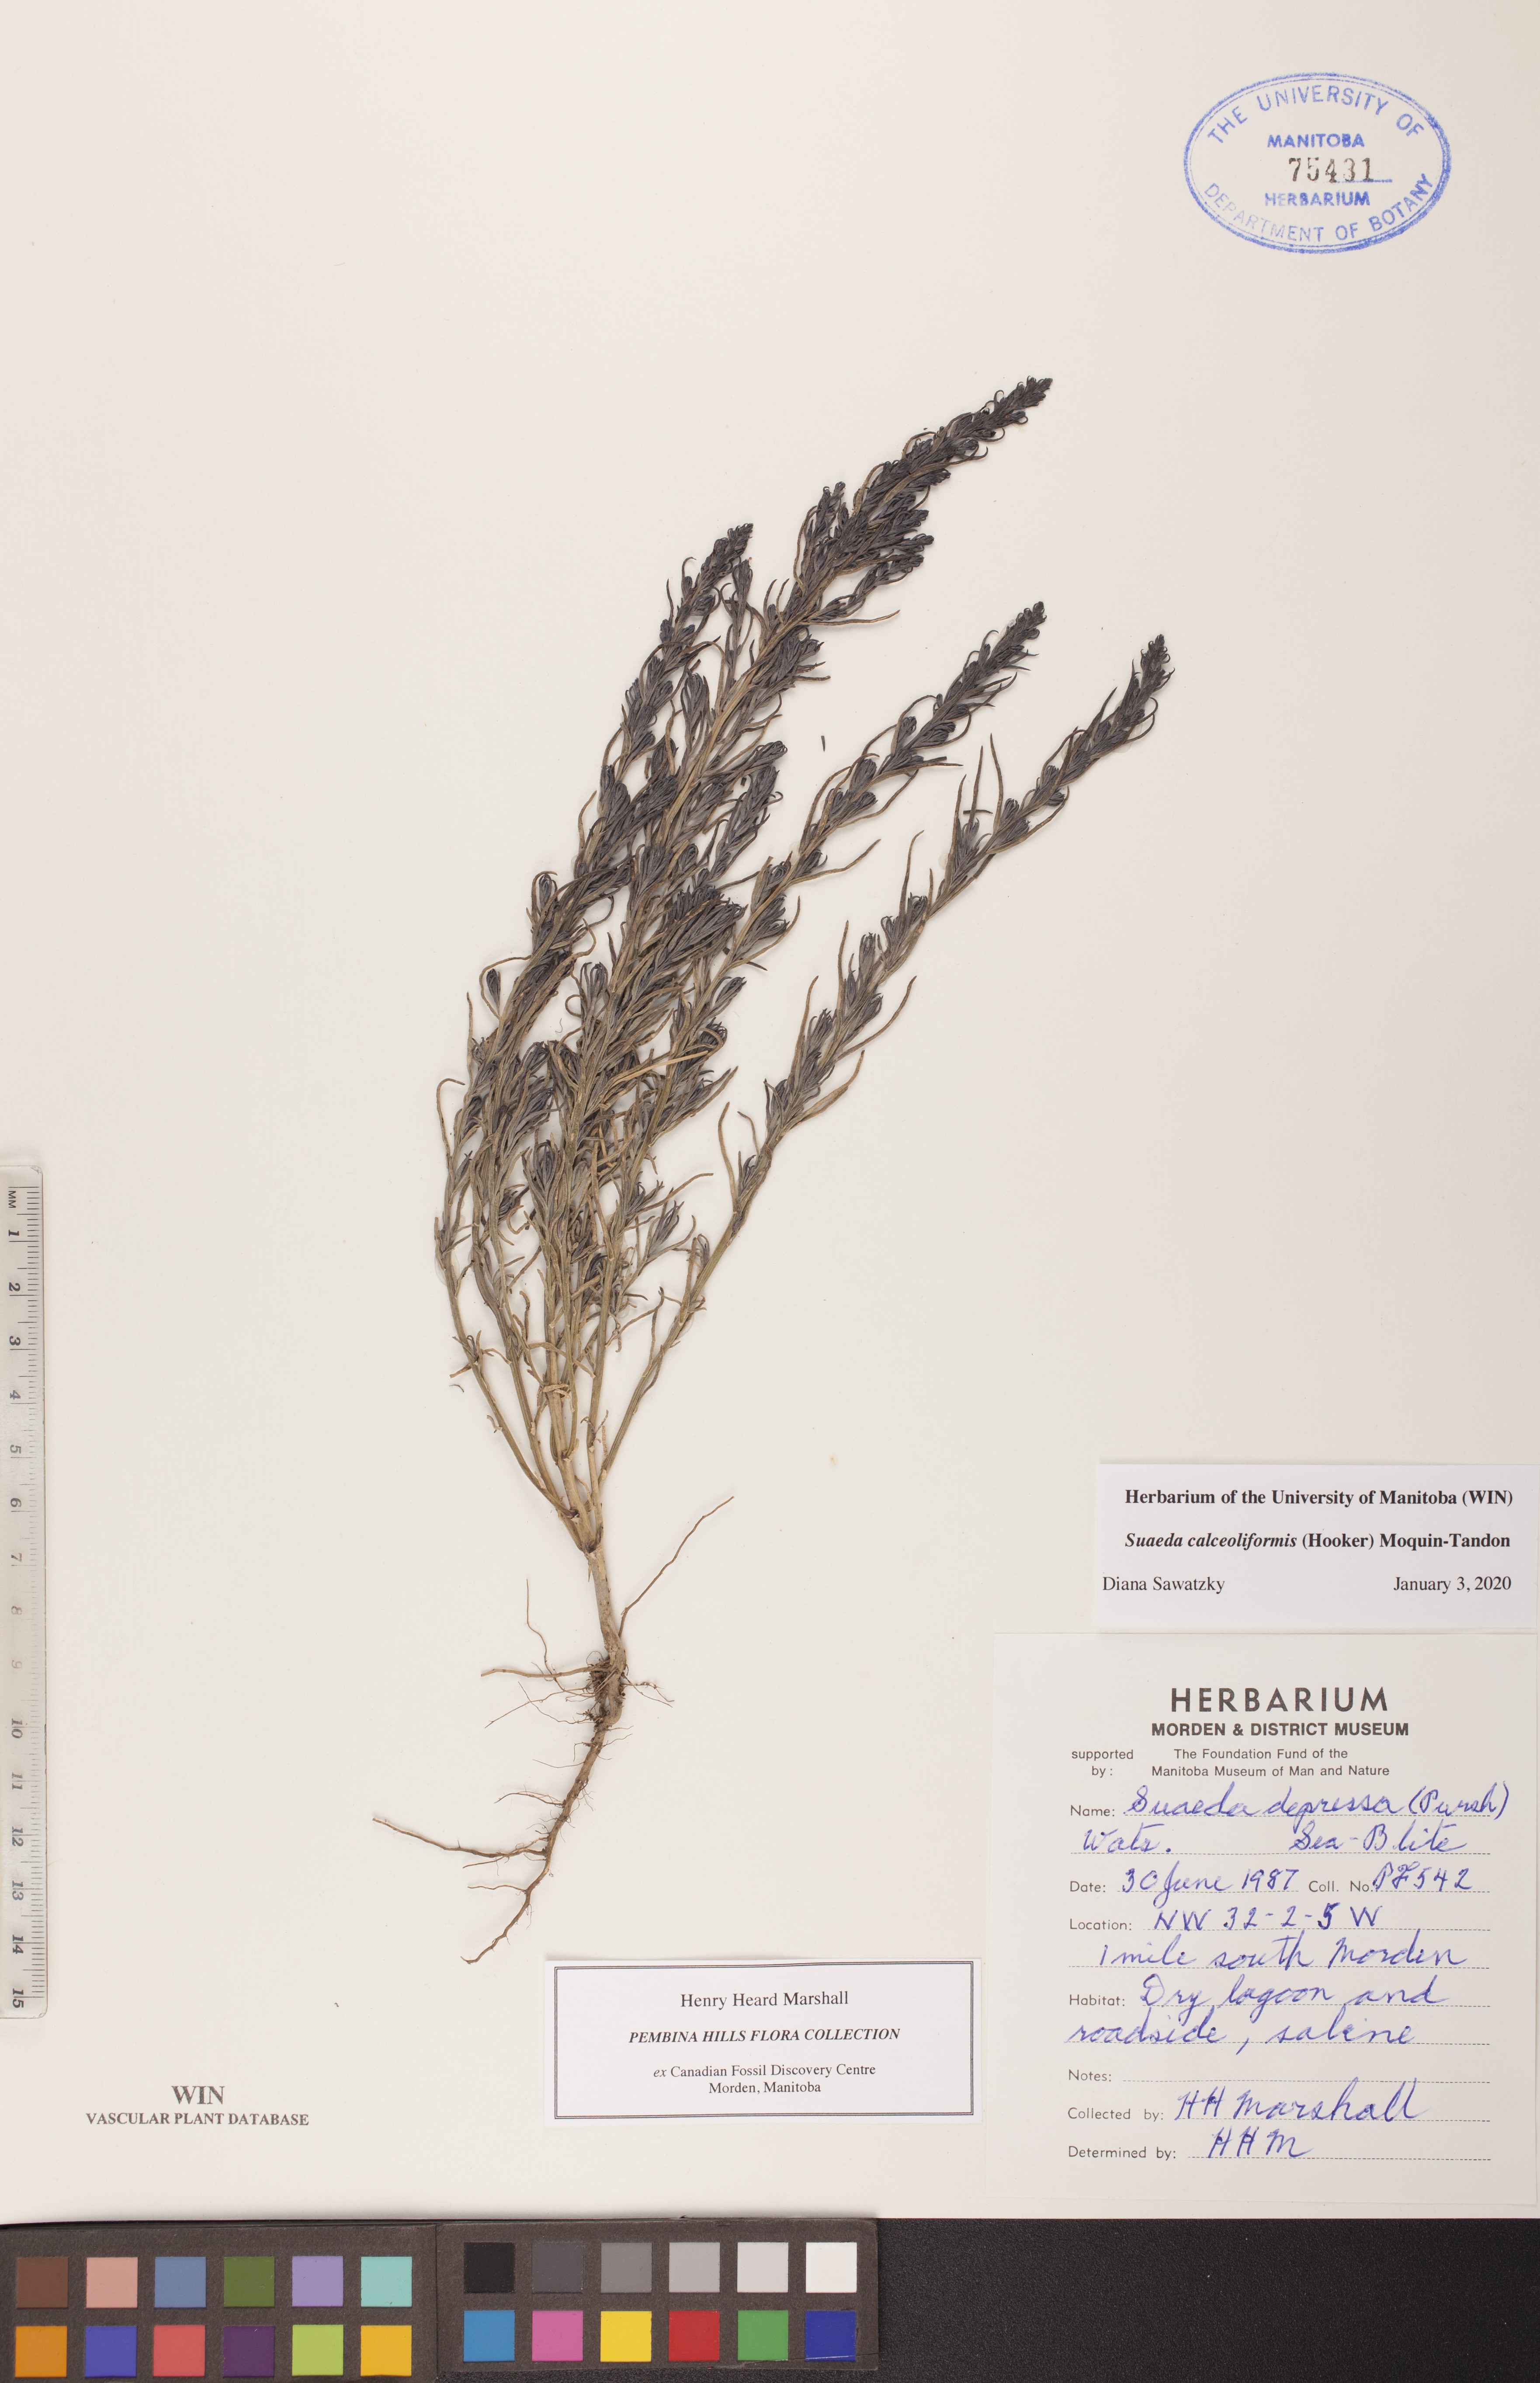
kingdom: Plantae
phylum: Tracheophyta
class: Magnoliopsida
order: Caryophyllales
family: Amaranthaceae
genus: Suaeda
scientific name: Suaeda calceoliformis
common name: Pursh's seepweed
